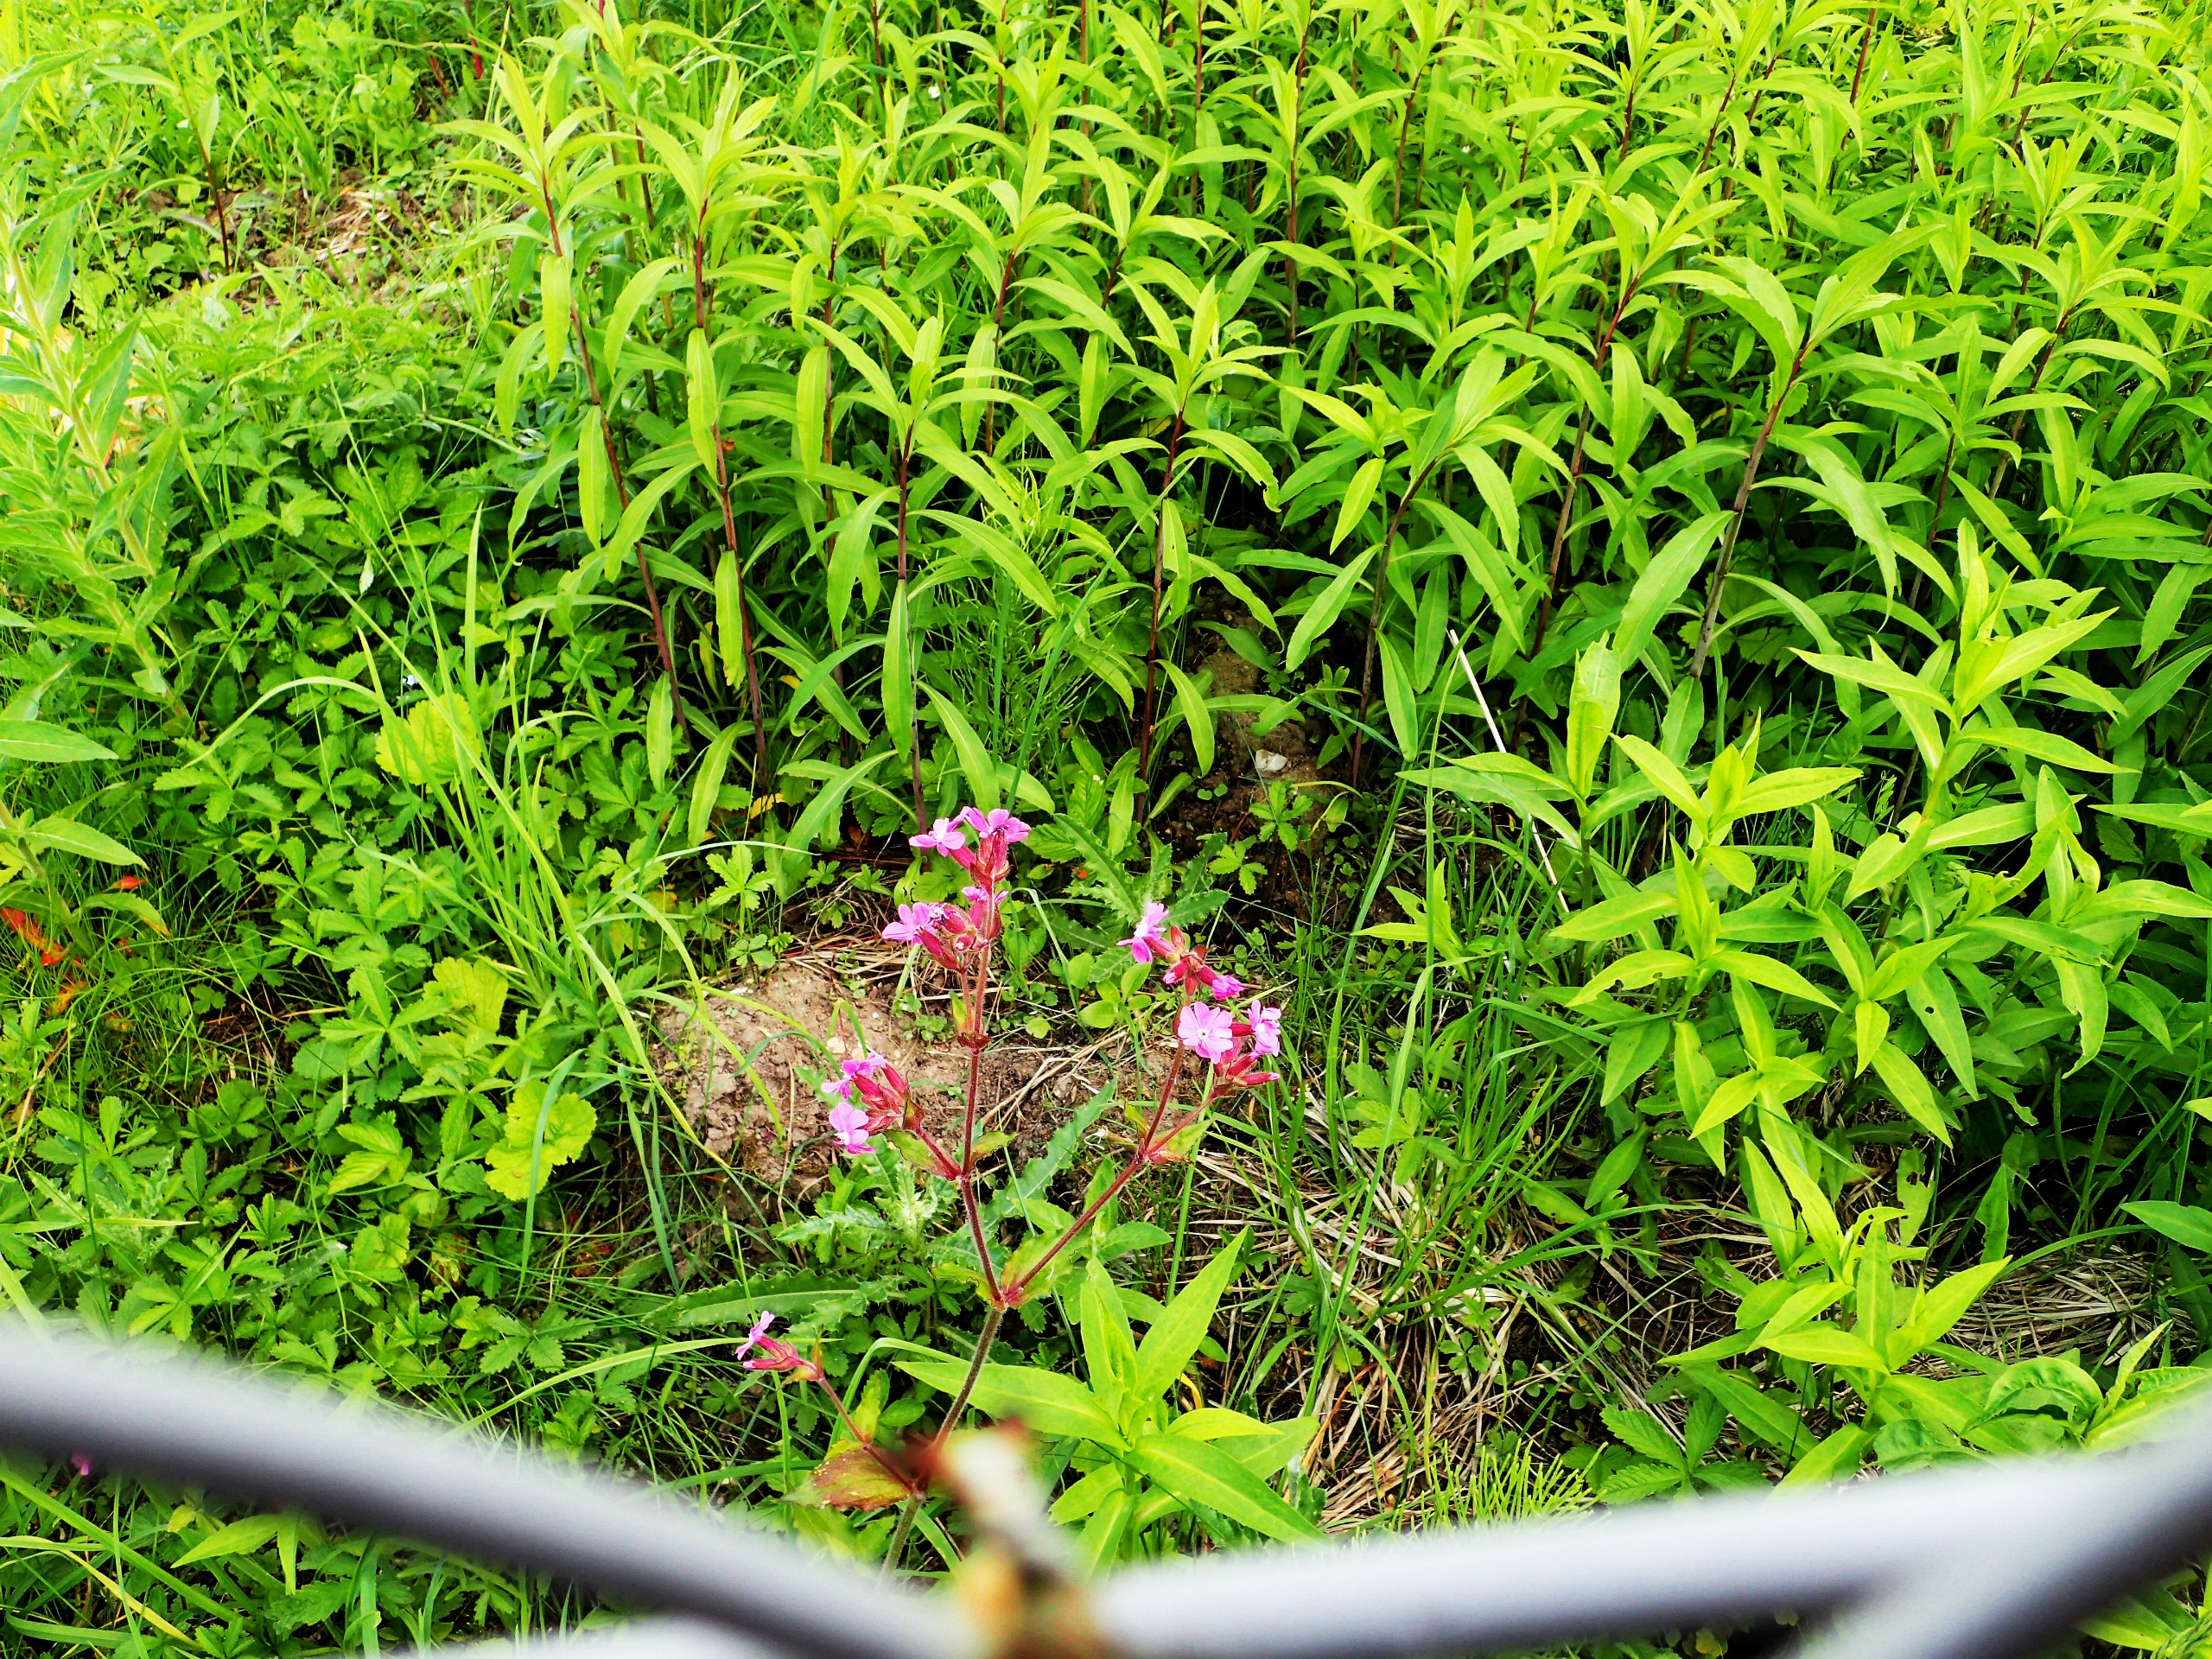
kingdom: Plantae
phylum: Tracheophyta
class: Magnoliopsida
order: Caryophyllales
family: Caryophyllaceae
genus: Silene
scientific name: Silene dioica
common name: Dagpragtstjerne
